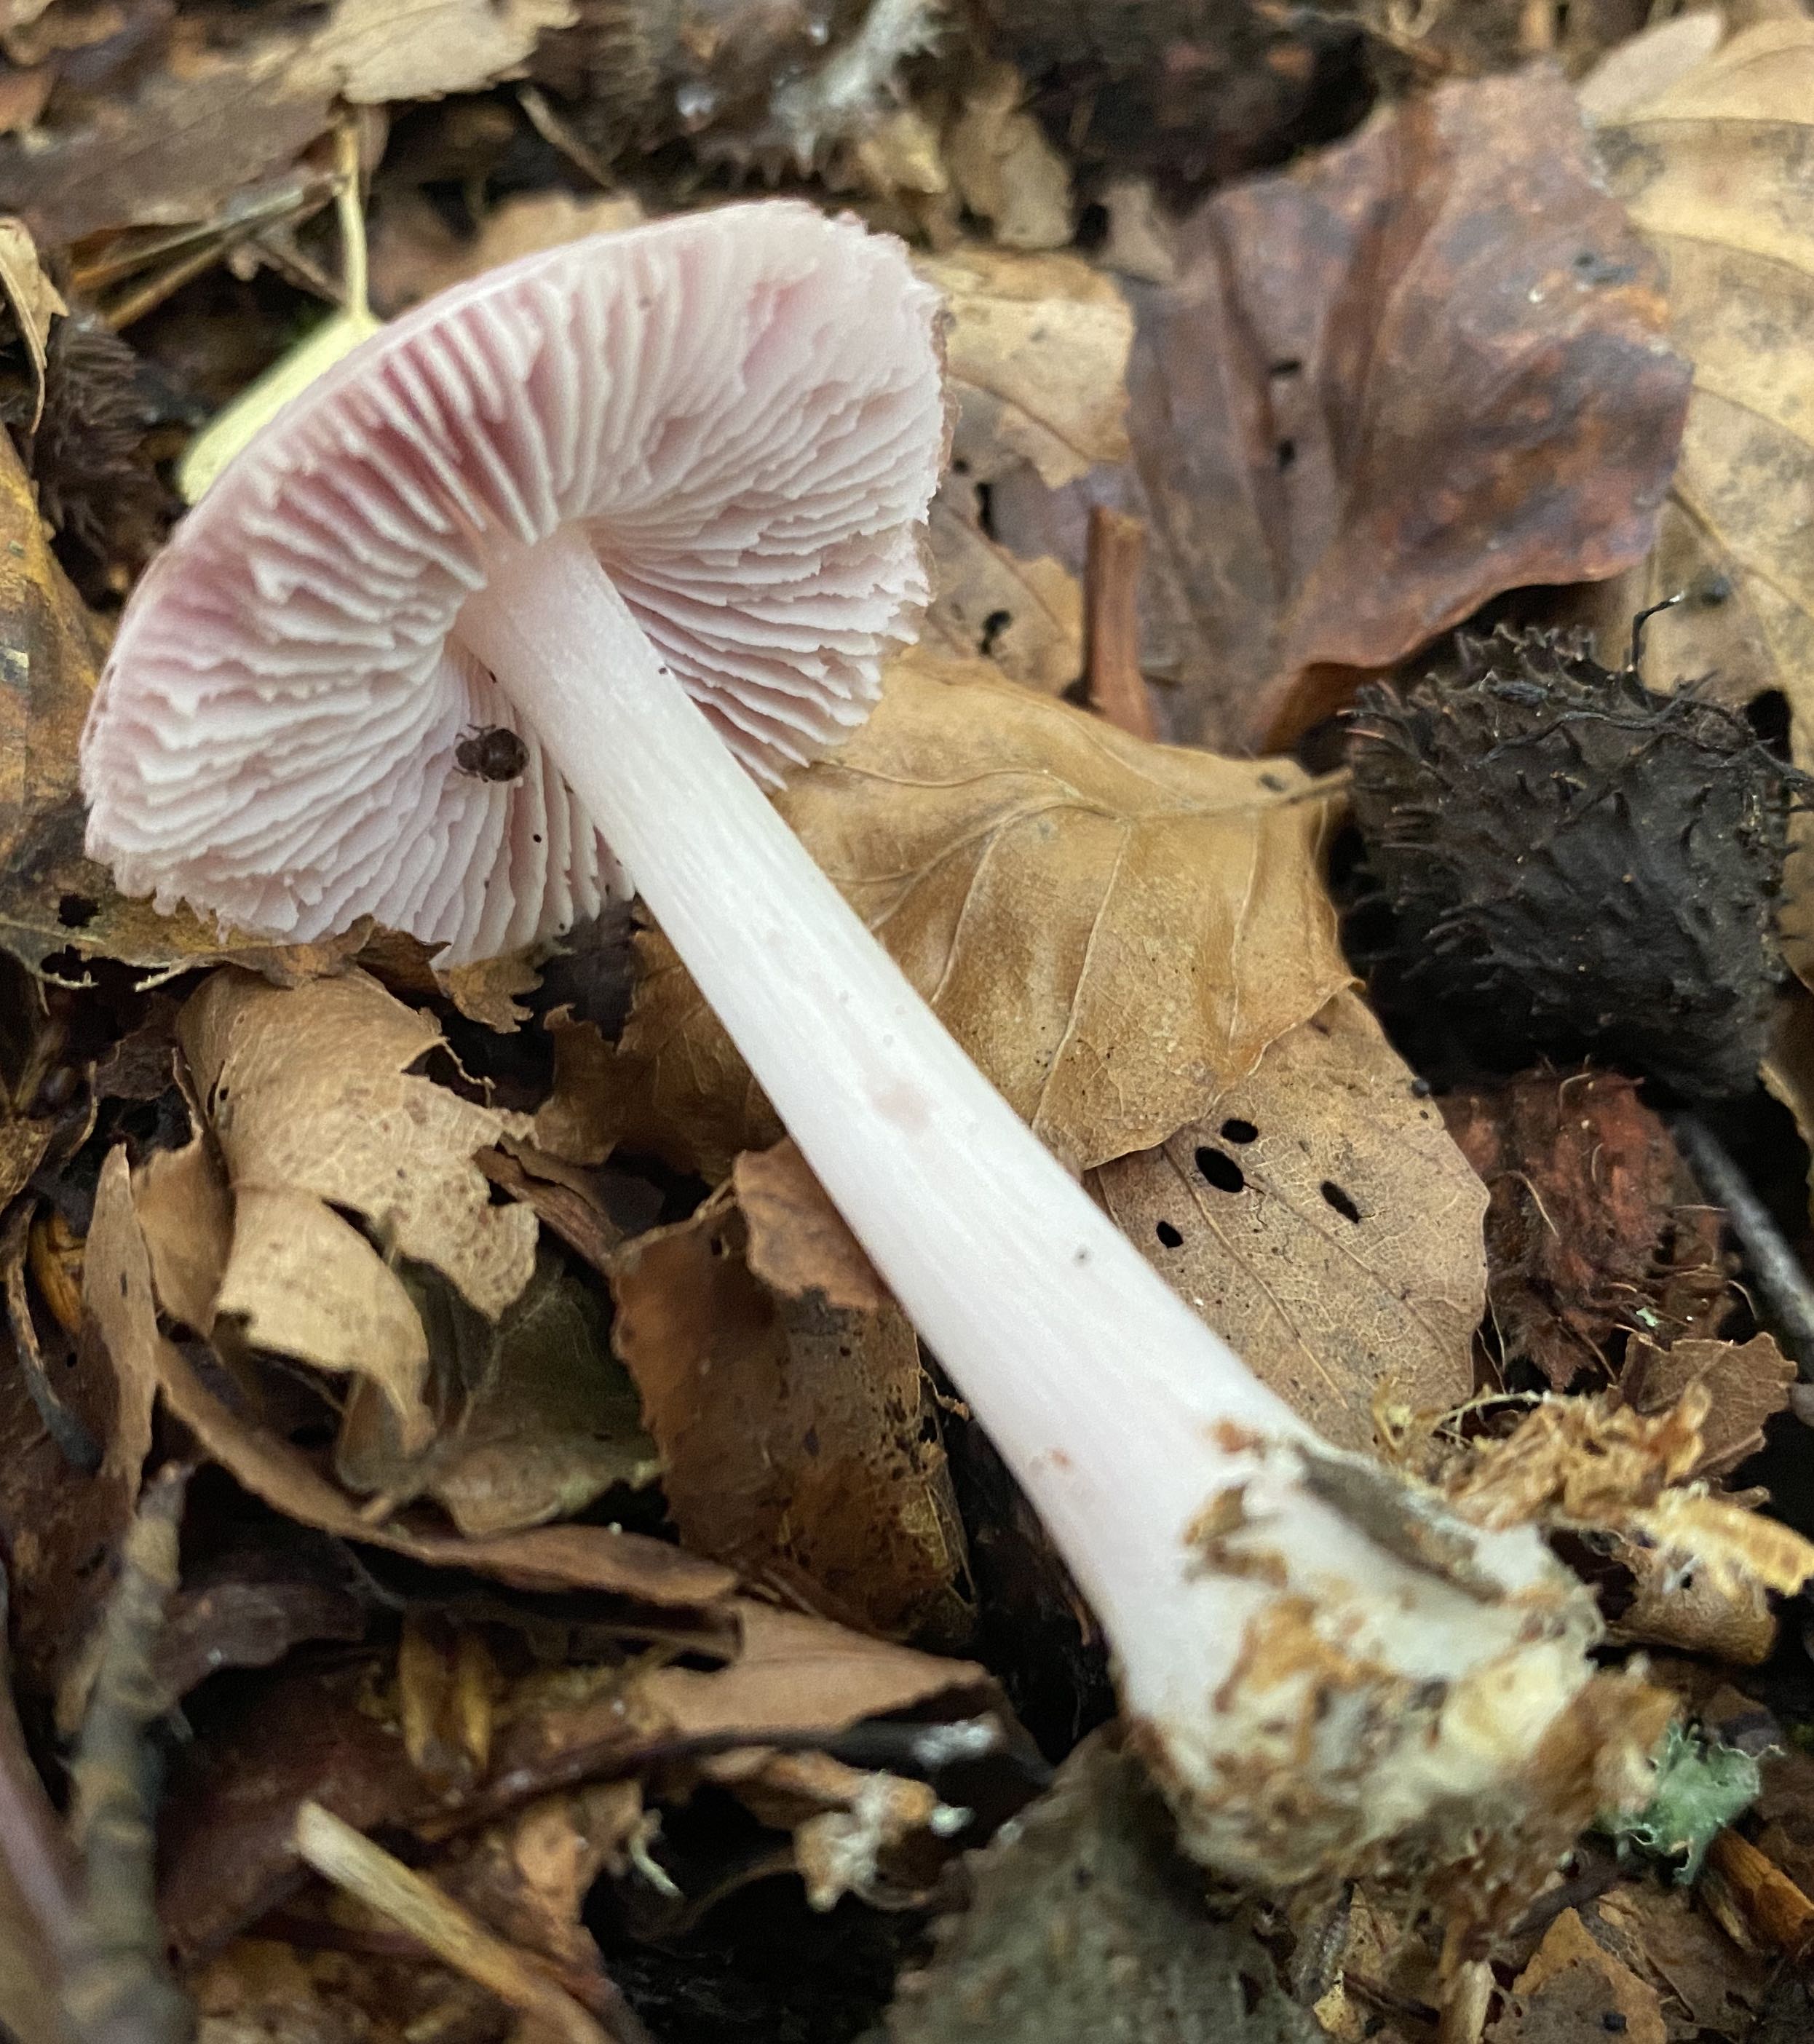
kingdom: Fungi
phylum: Basidiomycota
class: Agaricomycetes
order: Agaricales
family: Mycenaceae
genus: Mycena
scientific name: Mycena rosea
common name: rosa huesvamp
